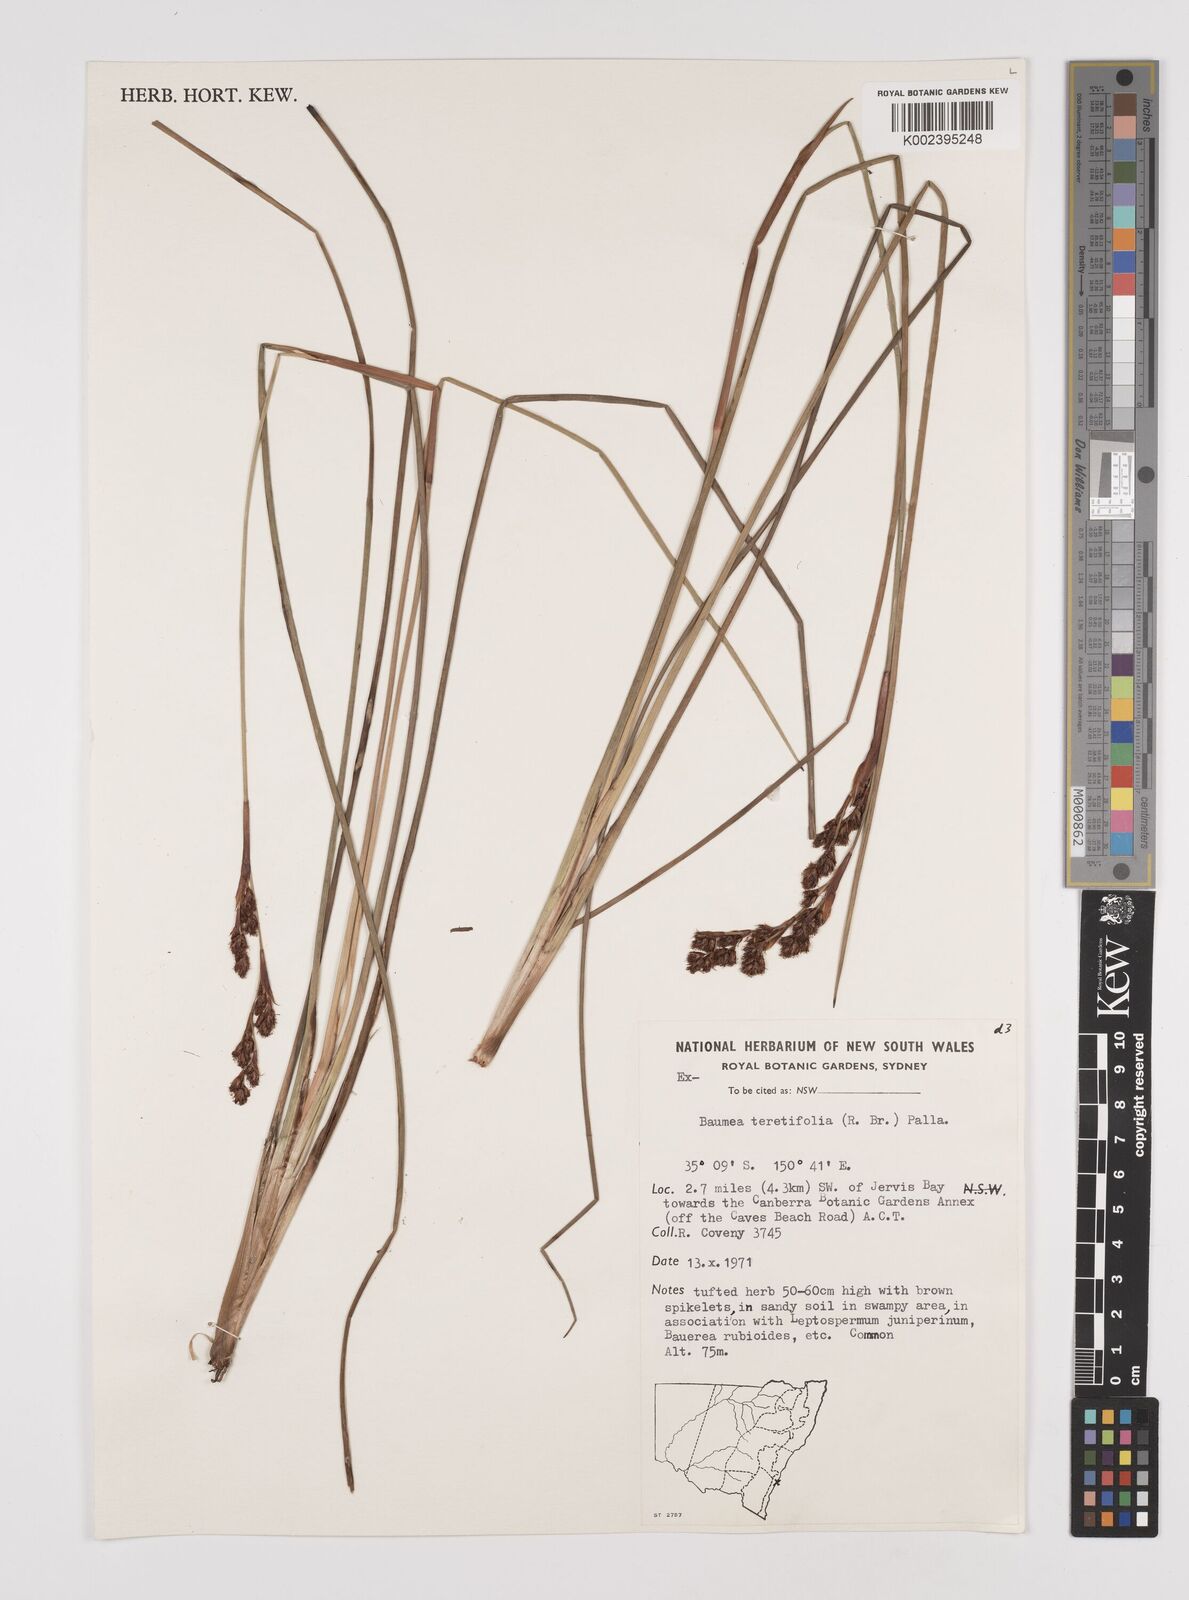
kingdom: Plantae
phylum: Tracheophyta
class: Liliopsida
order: Poales
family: Cyperaceae
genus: Machaerina
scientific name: Machaerina teretifolia
